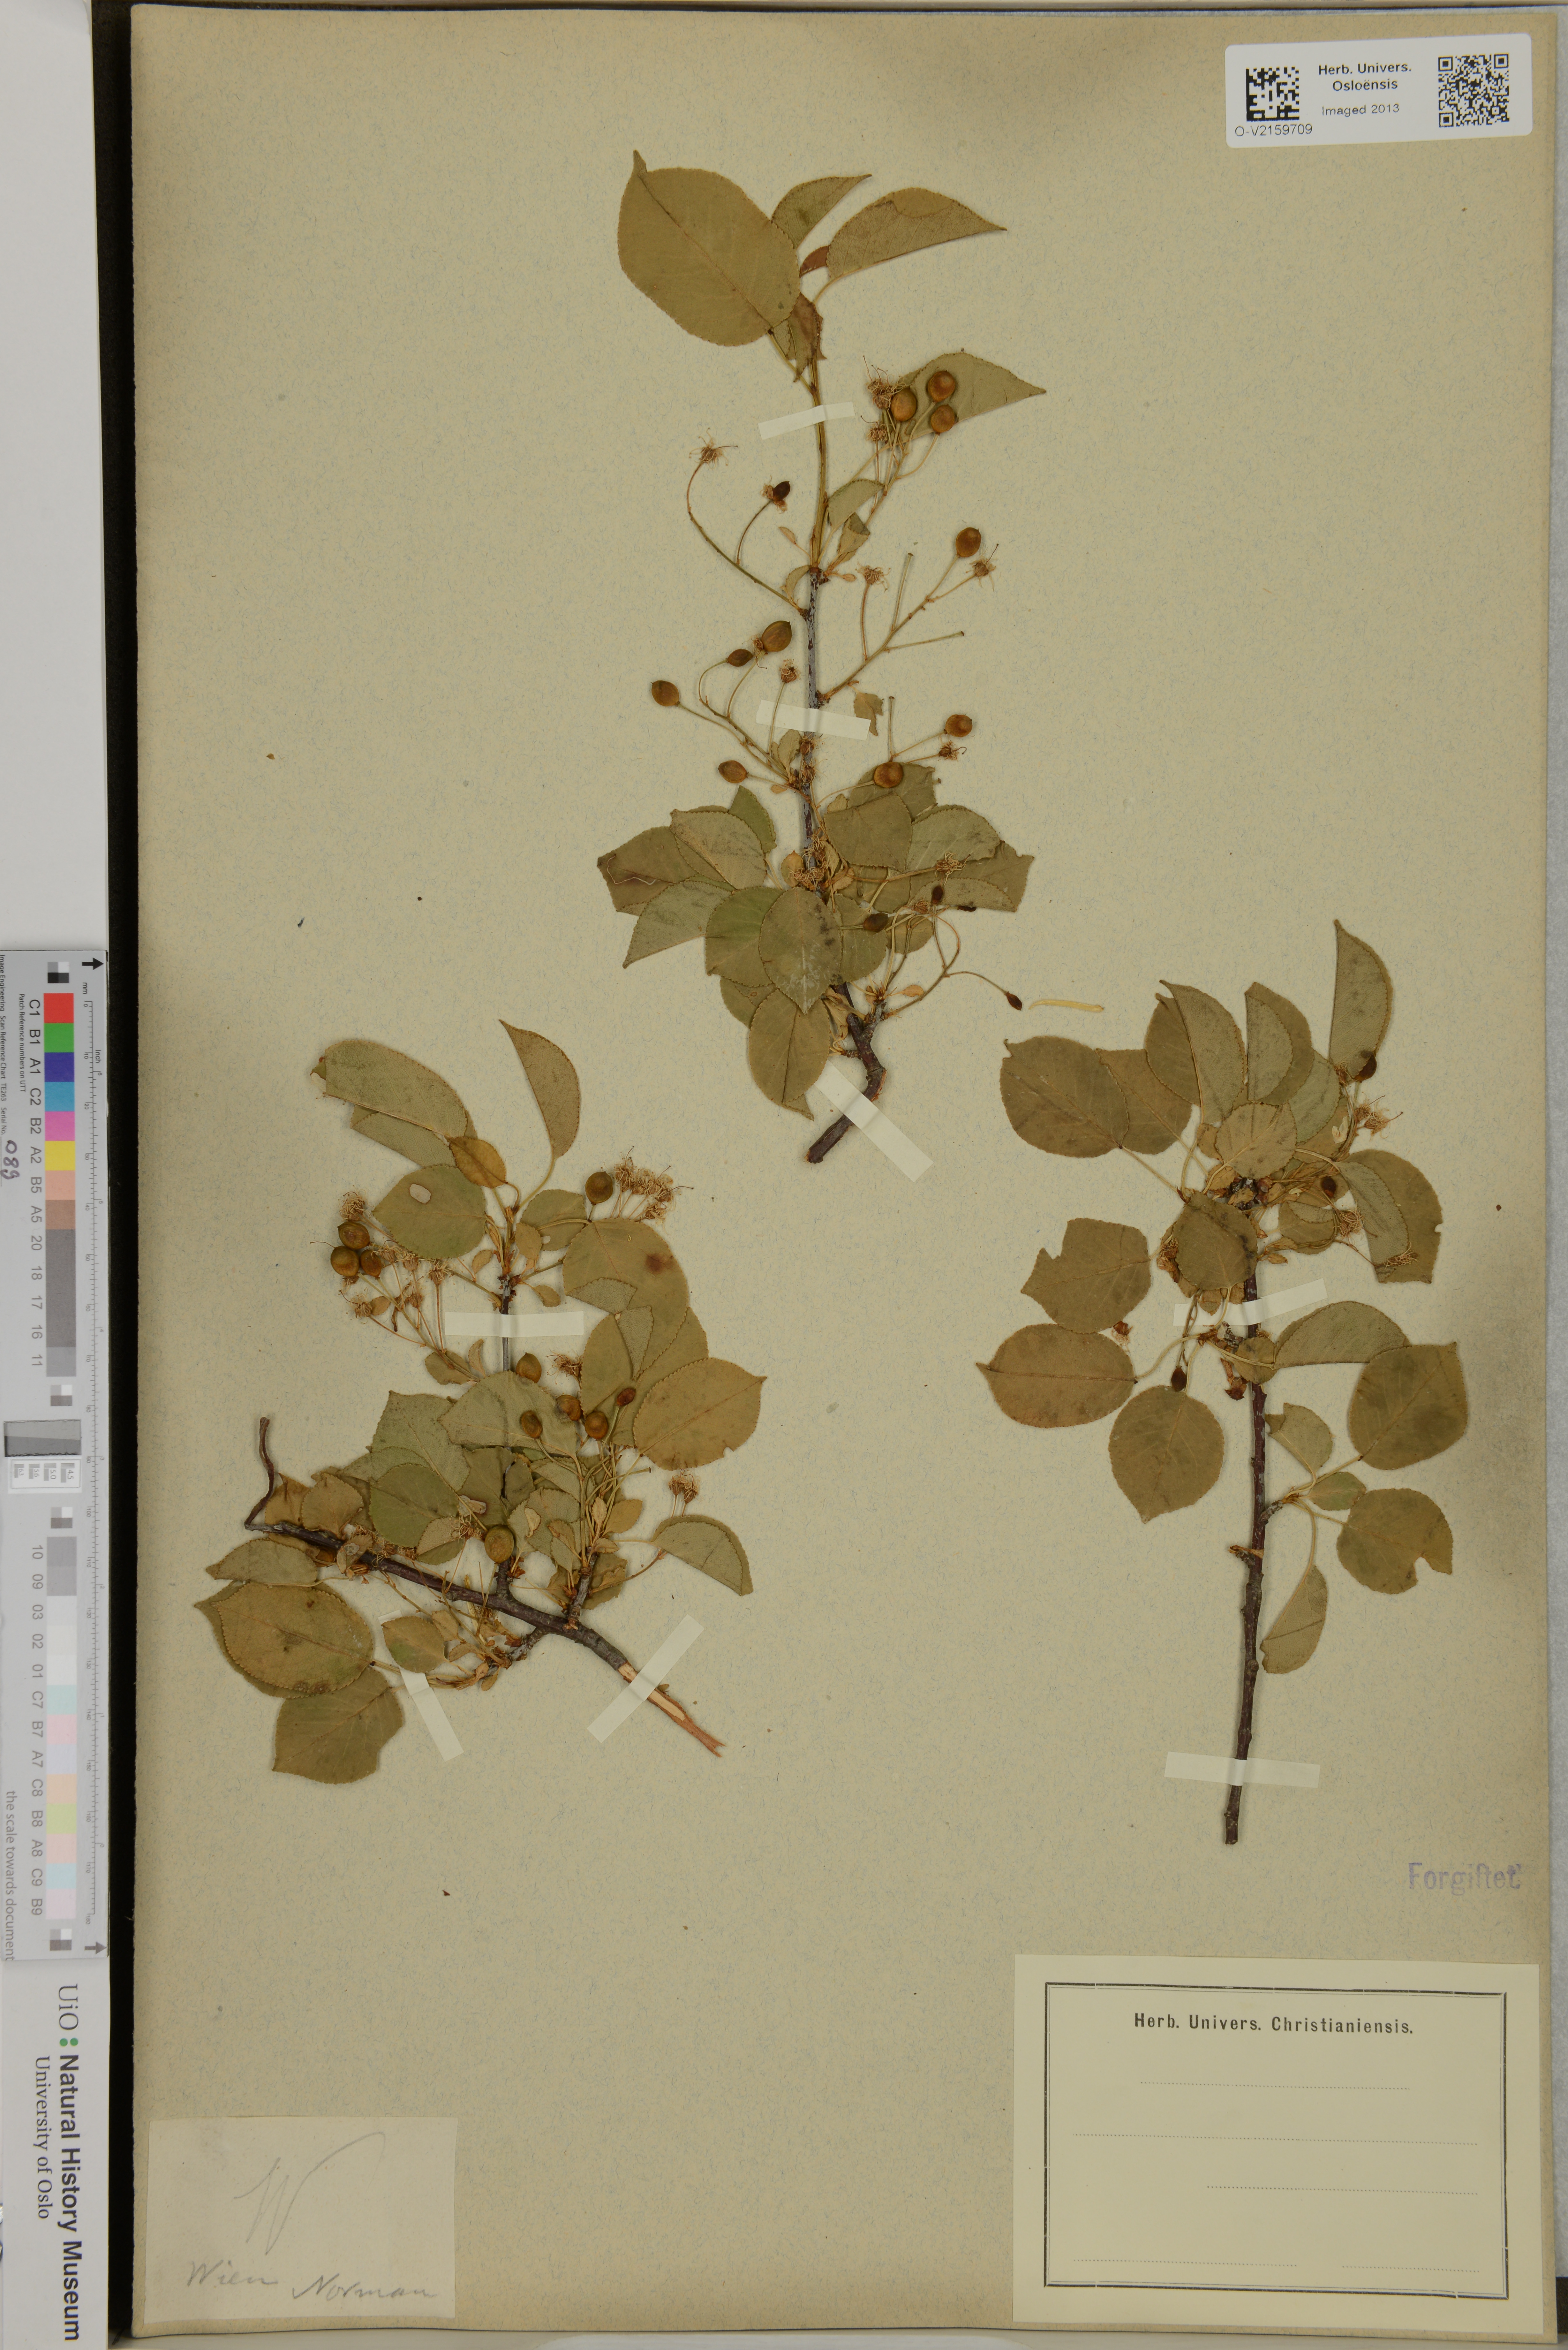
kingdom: Plantae
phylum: Tracheophyta
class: Magnoliopsida
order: Rosales
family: Rosaceae
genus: Prunus
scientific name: Prunus
